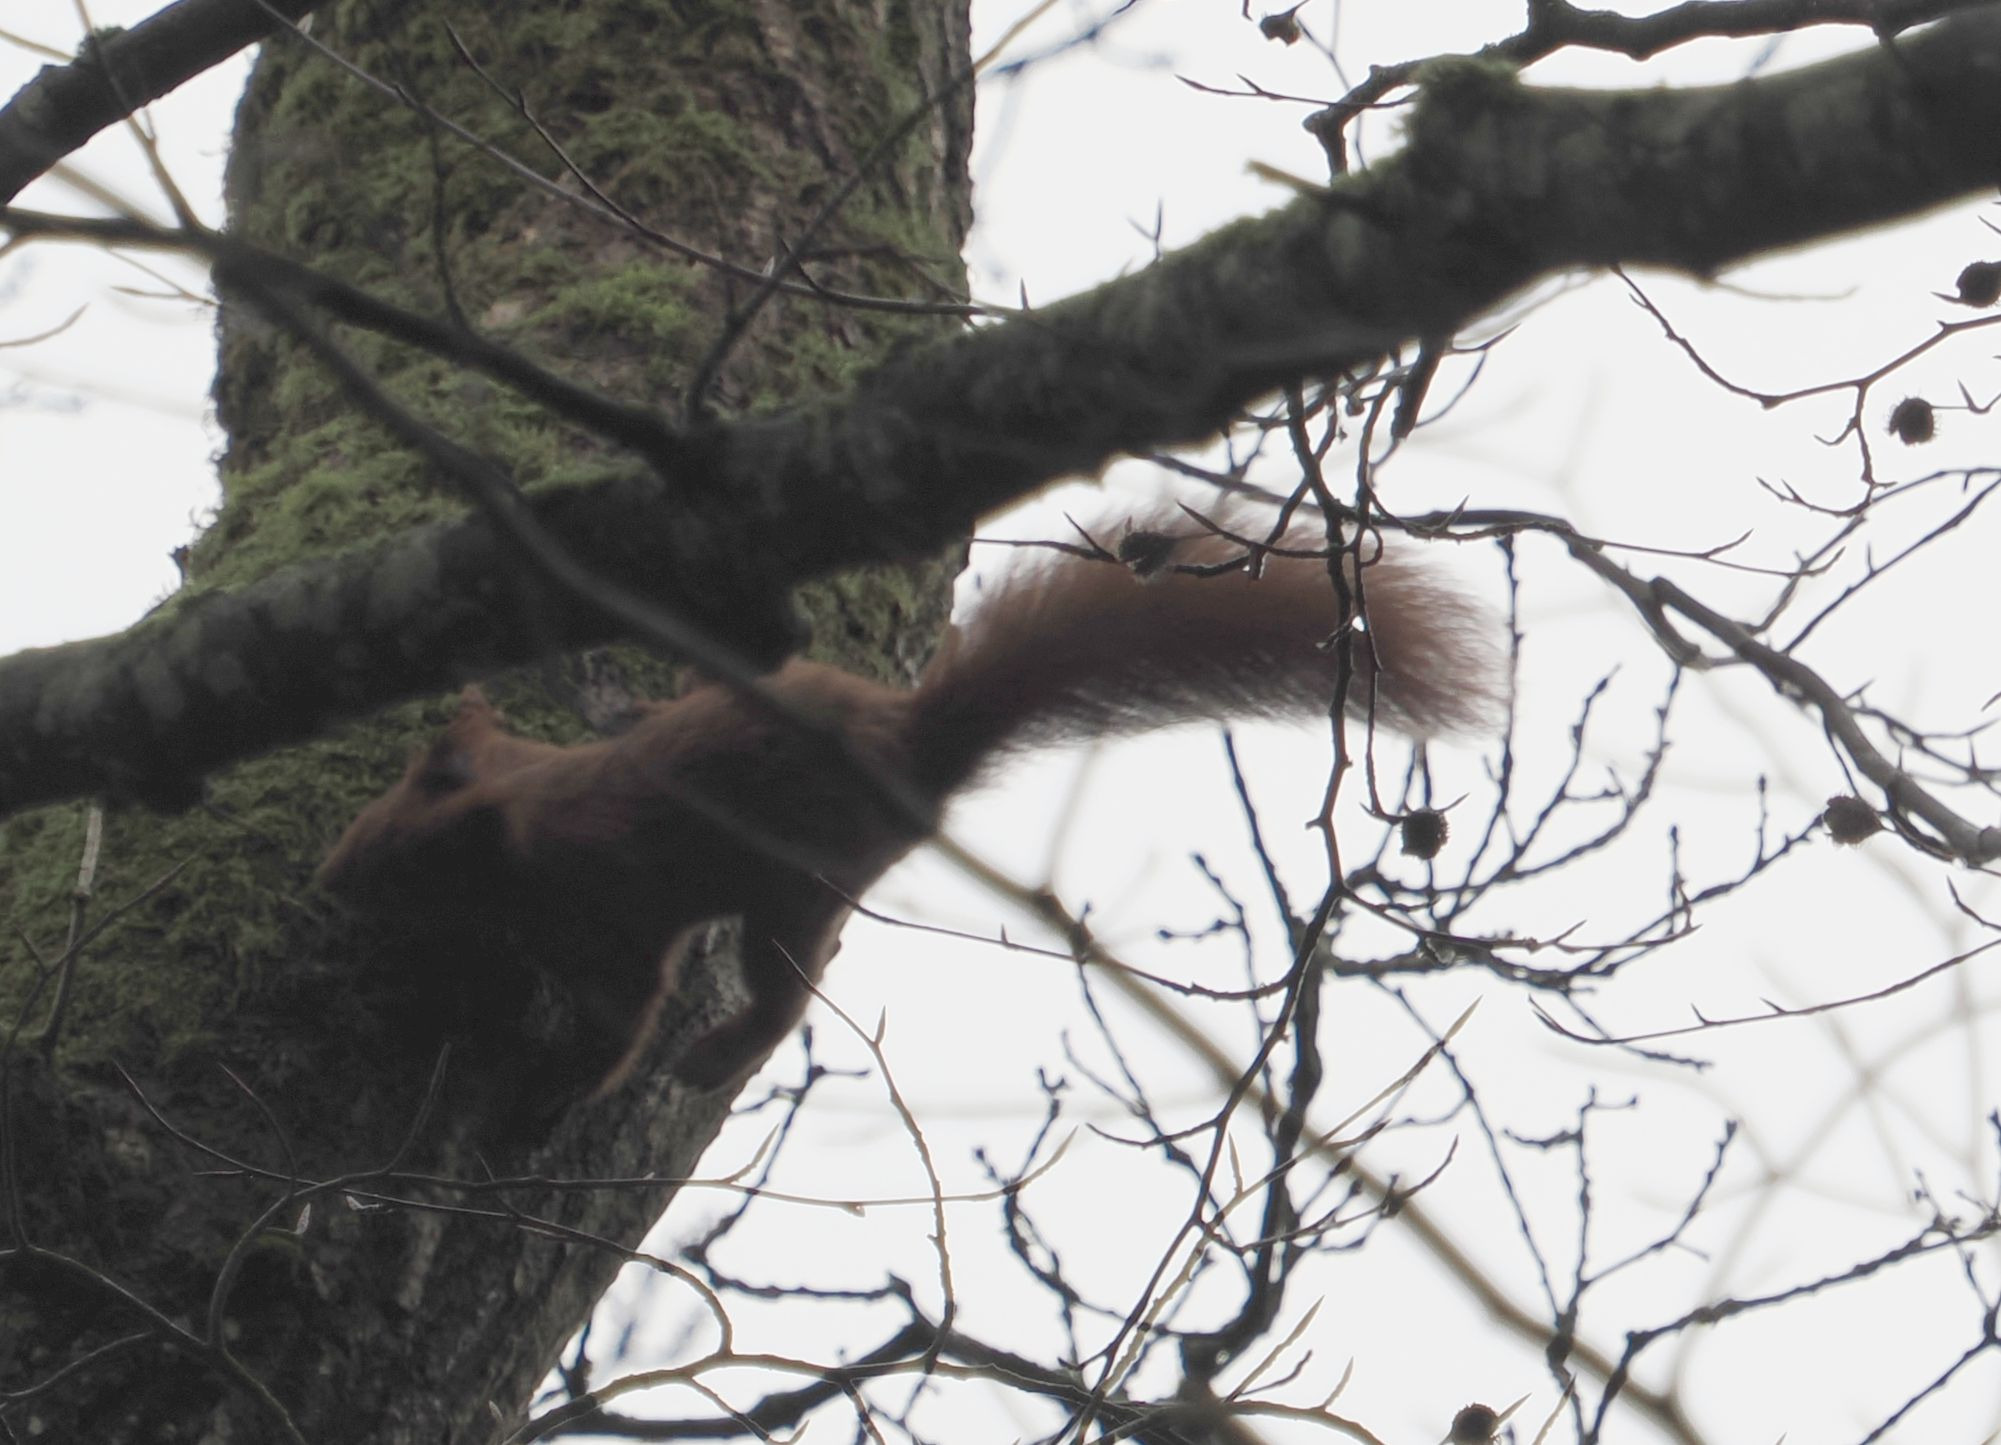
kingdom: Animalia
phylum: Chordata
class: Mammalia
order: Rodentia
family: Sciuridae
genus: Sciurus
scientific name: Sciurus vulgaris
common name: Egern
